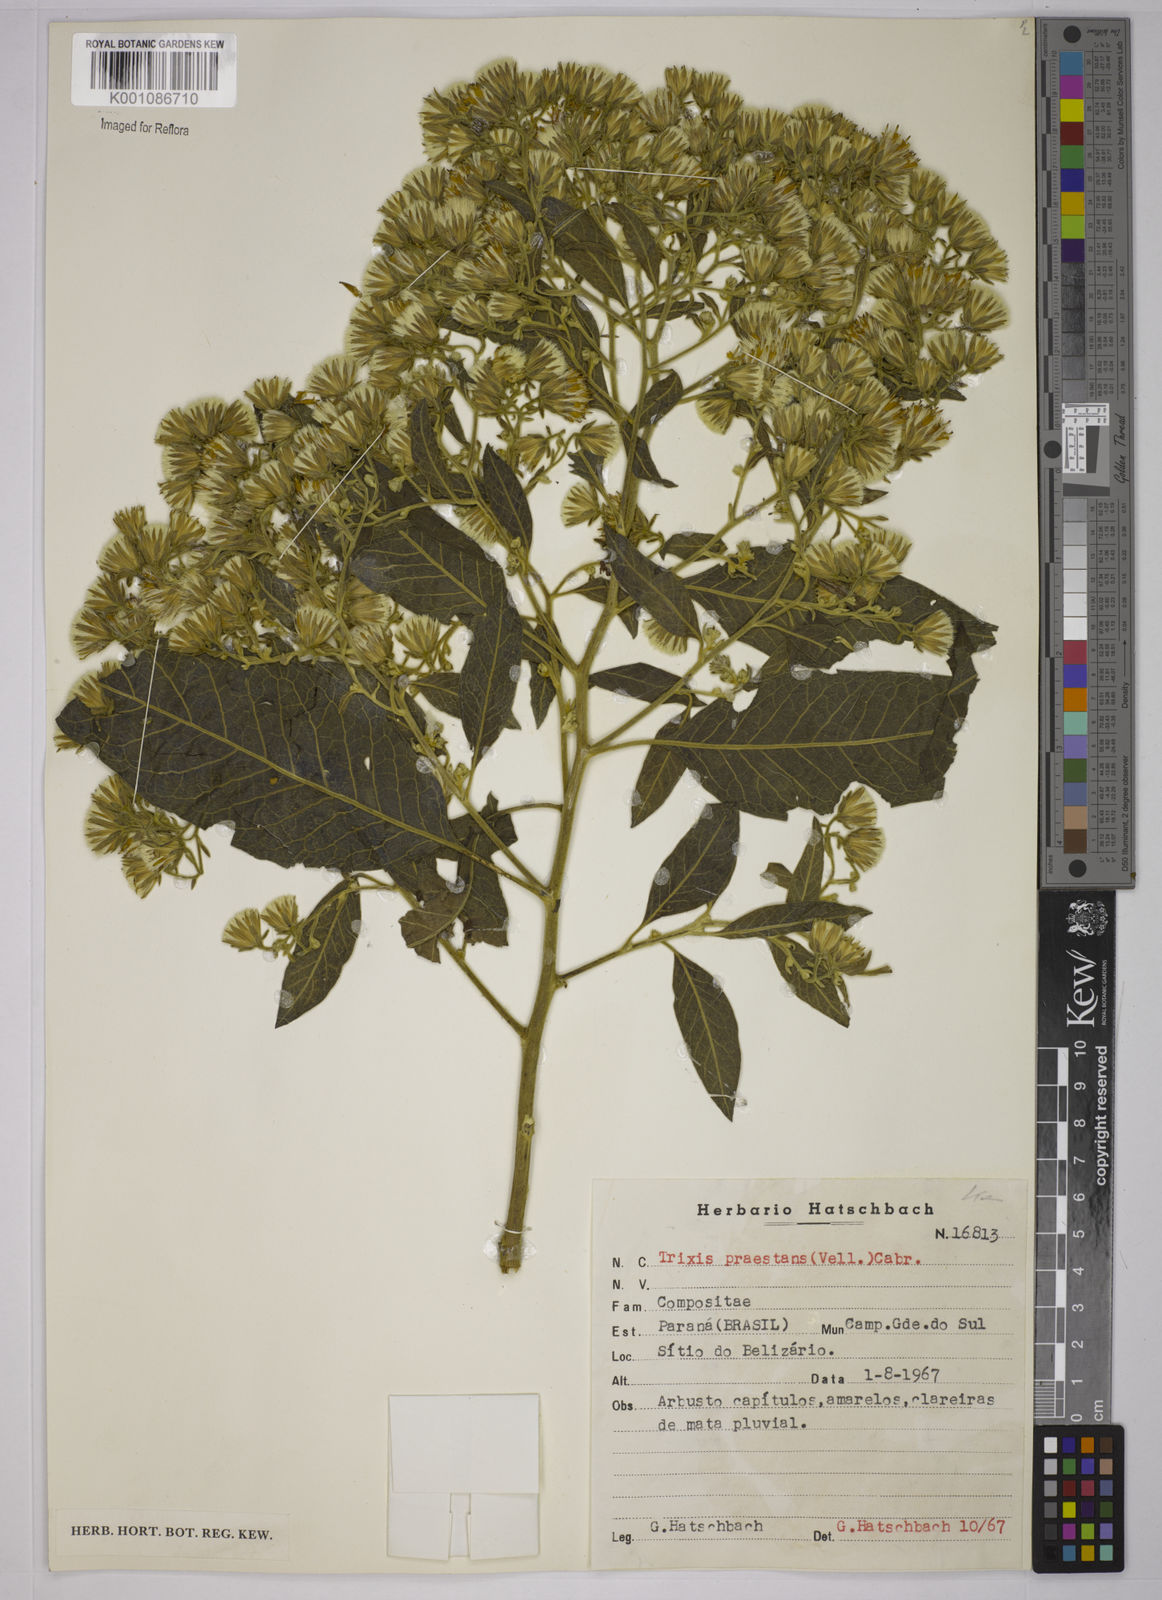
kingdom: Plantae
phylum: Tracheophyta
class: Magnoliopsida
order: Asterales
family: Asteraceae
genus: Trixis
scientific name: Trixis praestans
